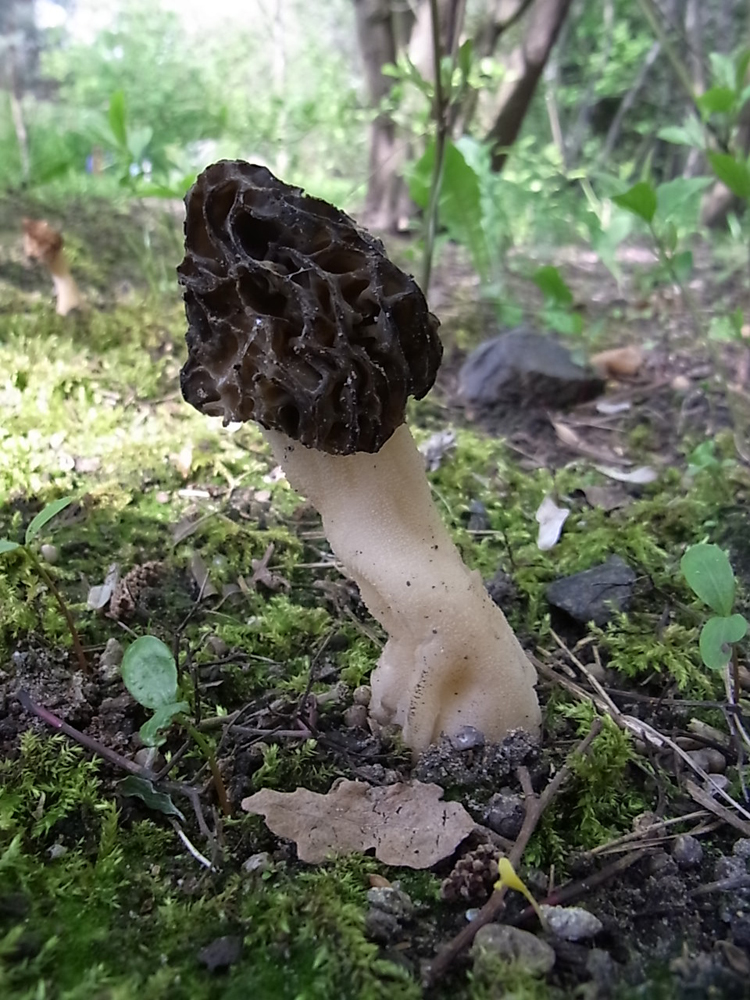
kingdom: Fungi
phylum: Ascomycota
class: Pezizomycetes
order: Pezizales
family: Morchellaceae
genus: Morchella
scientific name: Morchella semilibera
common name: Semifree morel
